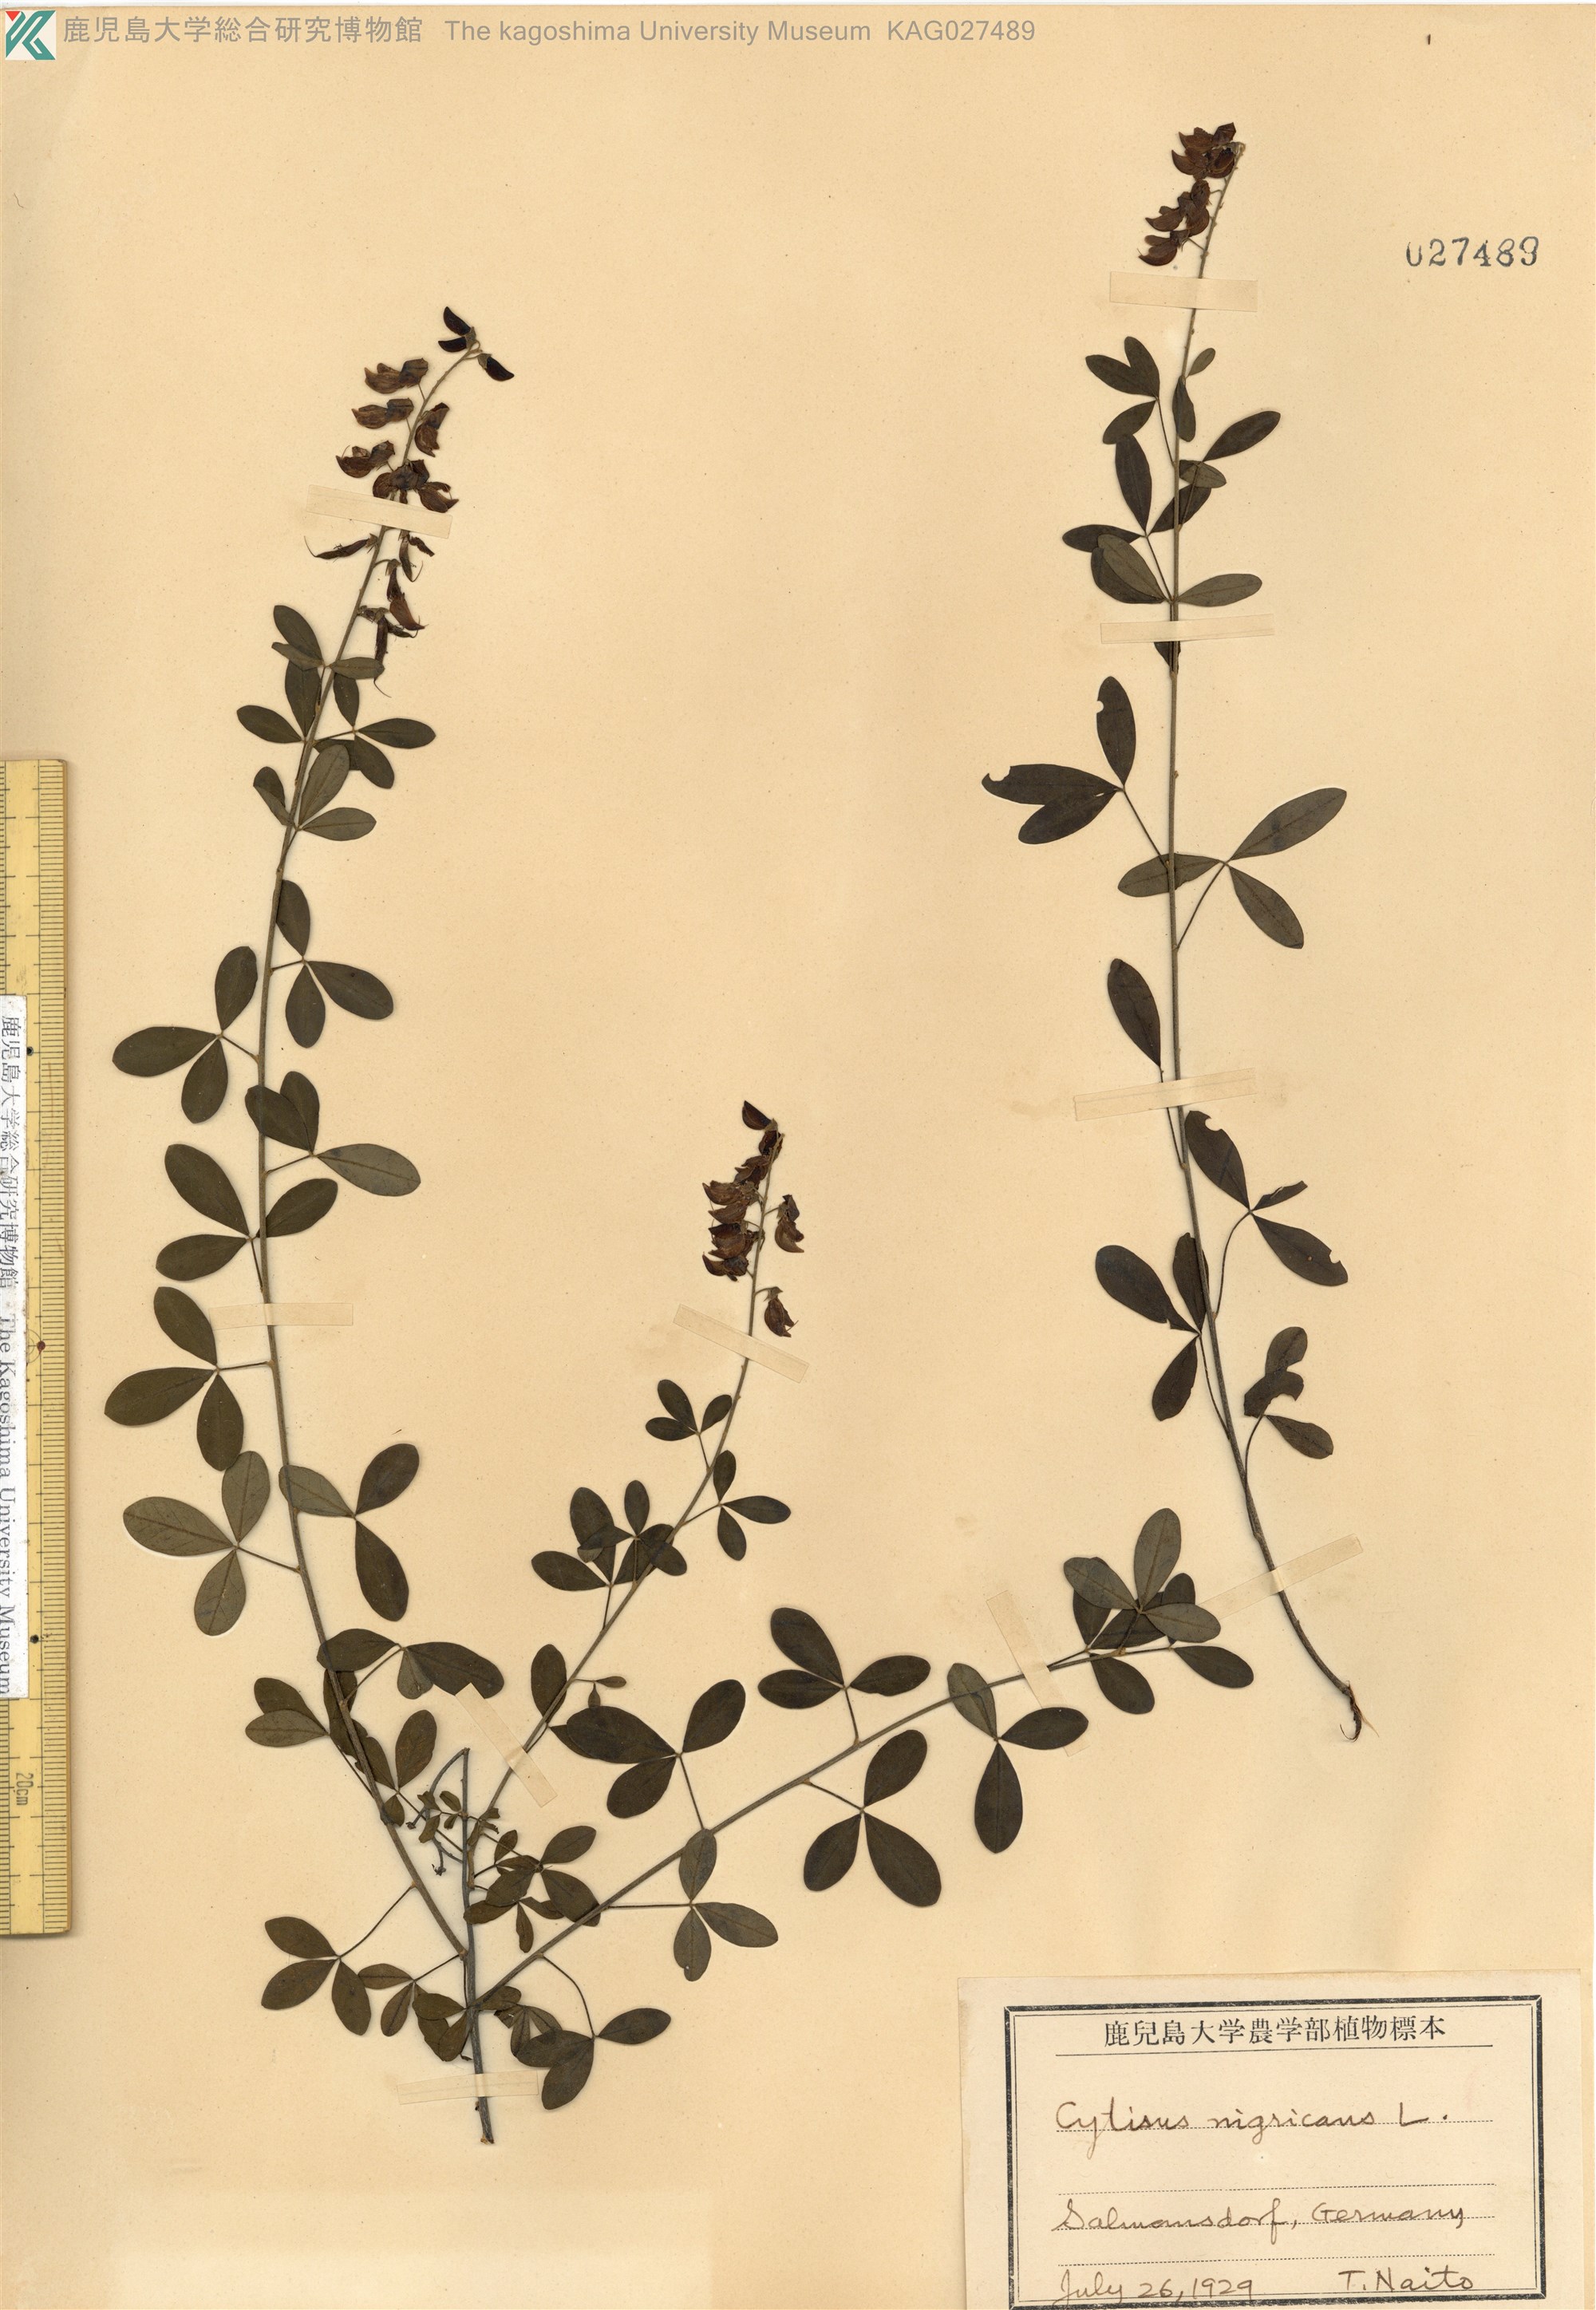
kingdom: Plantae
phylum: Tracheophyta
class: Magnoliopsida
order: Fabales
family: Fabaceae
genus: Cytisus
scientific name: Cytisus nigricans
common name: Black broom
